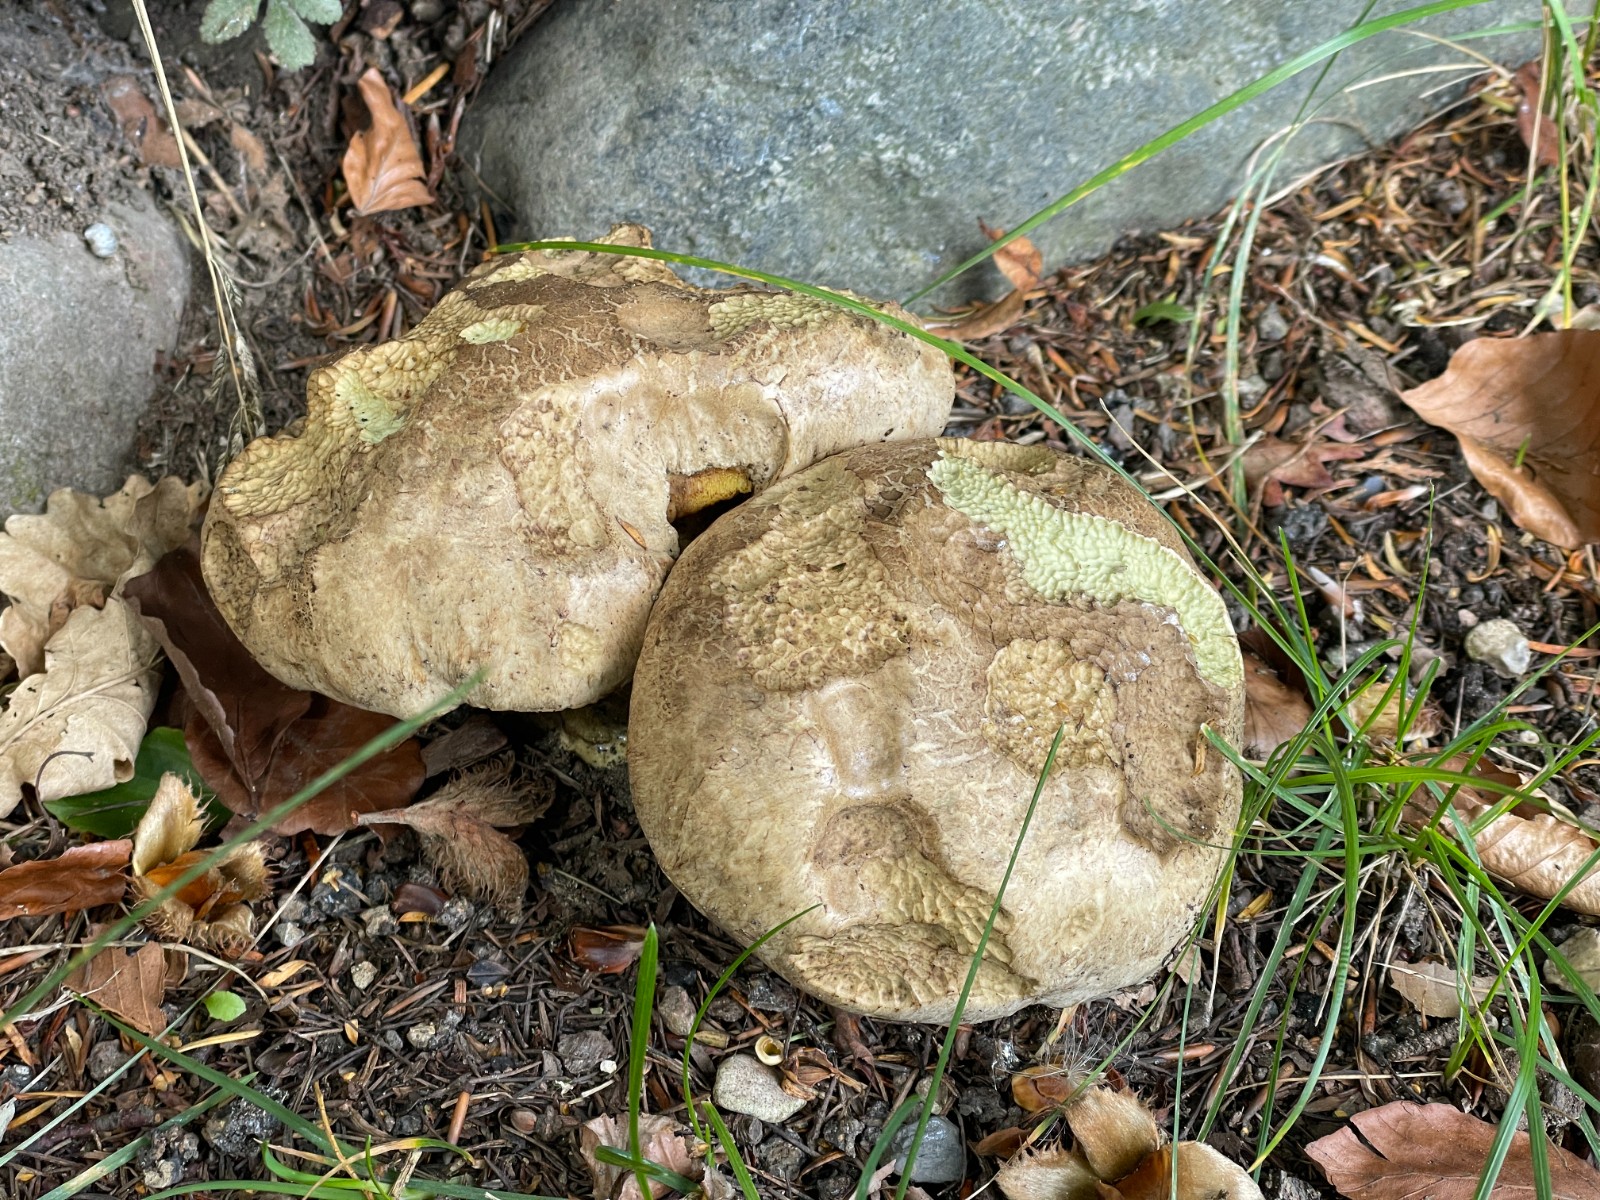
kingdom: Fungi
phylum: Basidiomycota
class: Agaricomycetes
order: Boletales
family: Boletaceae
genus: Caloboletus
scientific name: Caloboletus radicans
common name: rod-rørhat
